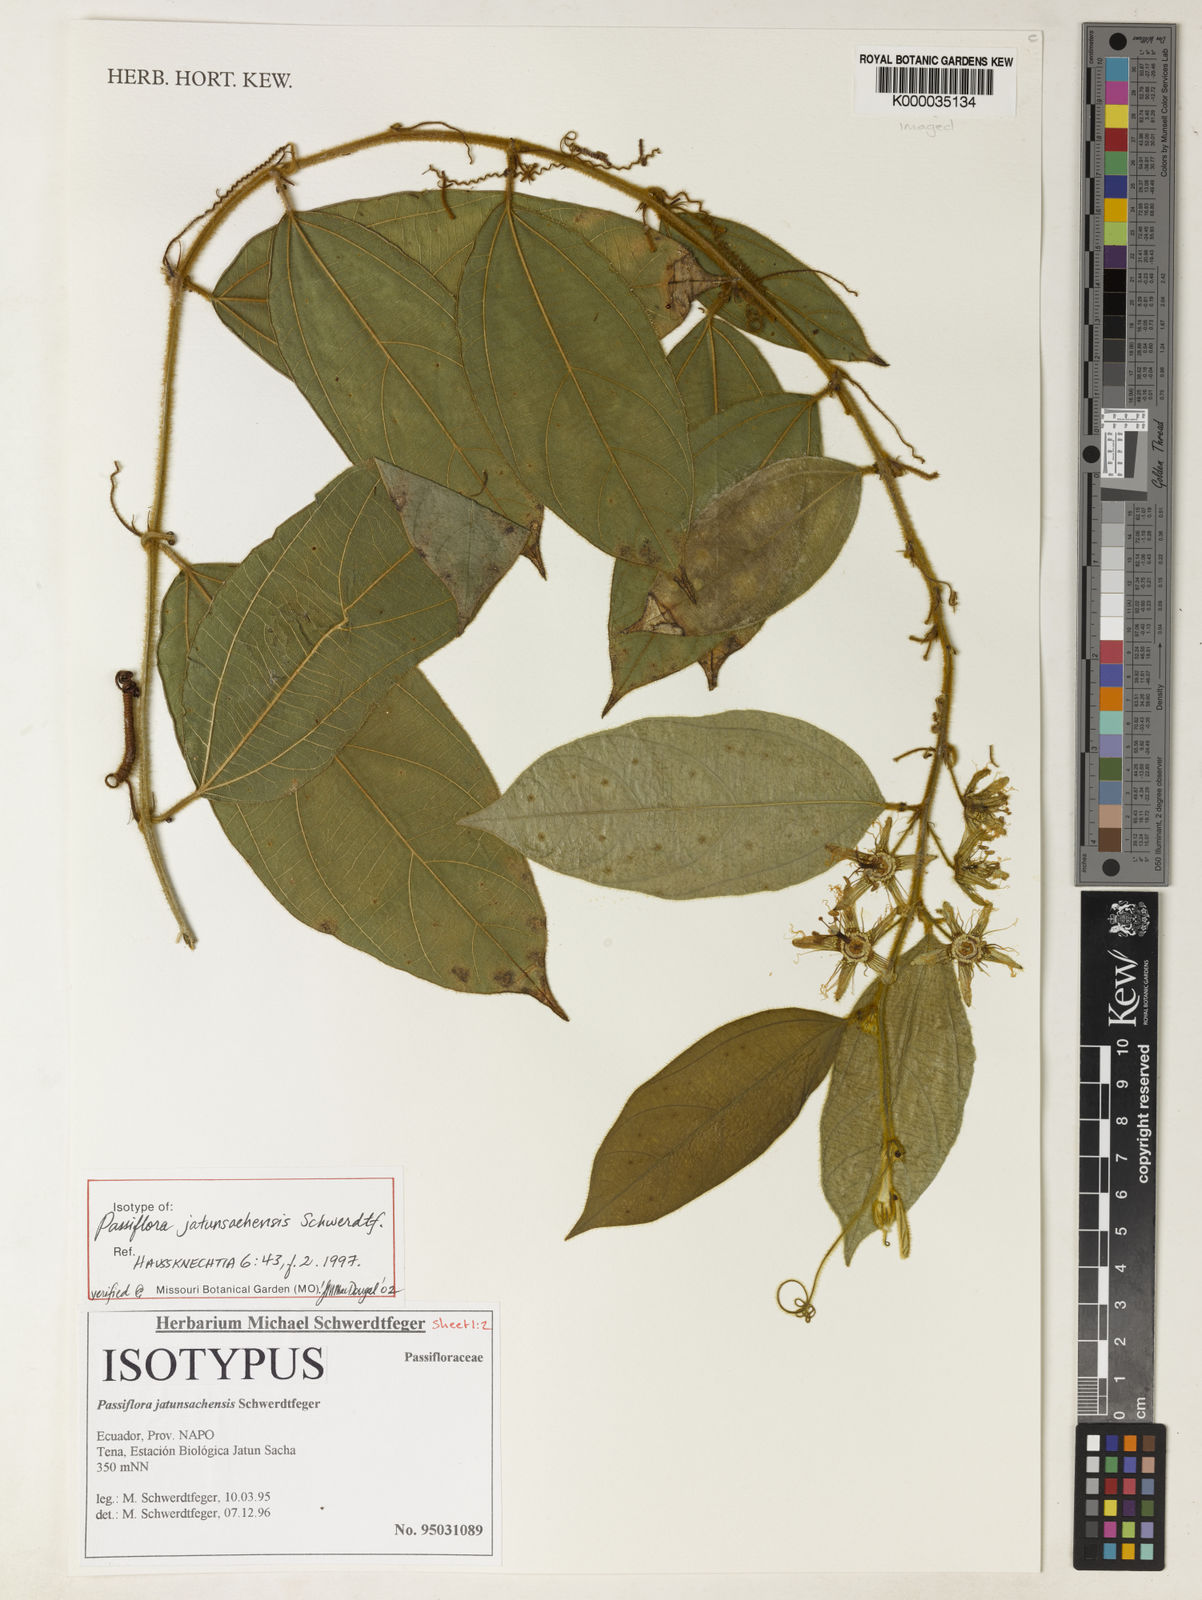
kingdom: Plantae
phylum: Tracheophyta
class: Magnoliopsida
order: Malpighiales
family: Passifloraceae
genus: Passiflora
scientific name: Passiflora jatunsachensis
